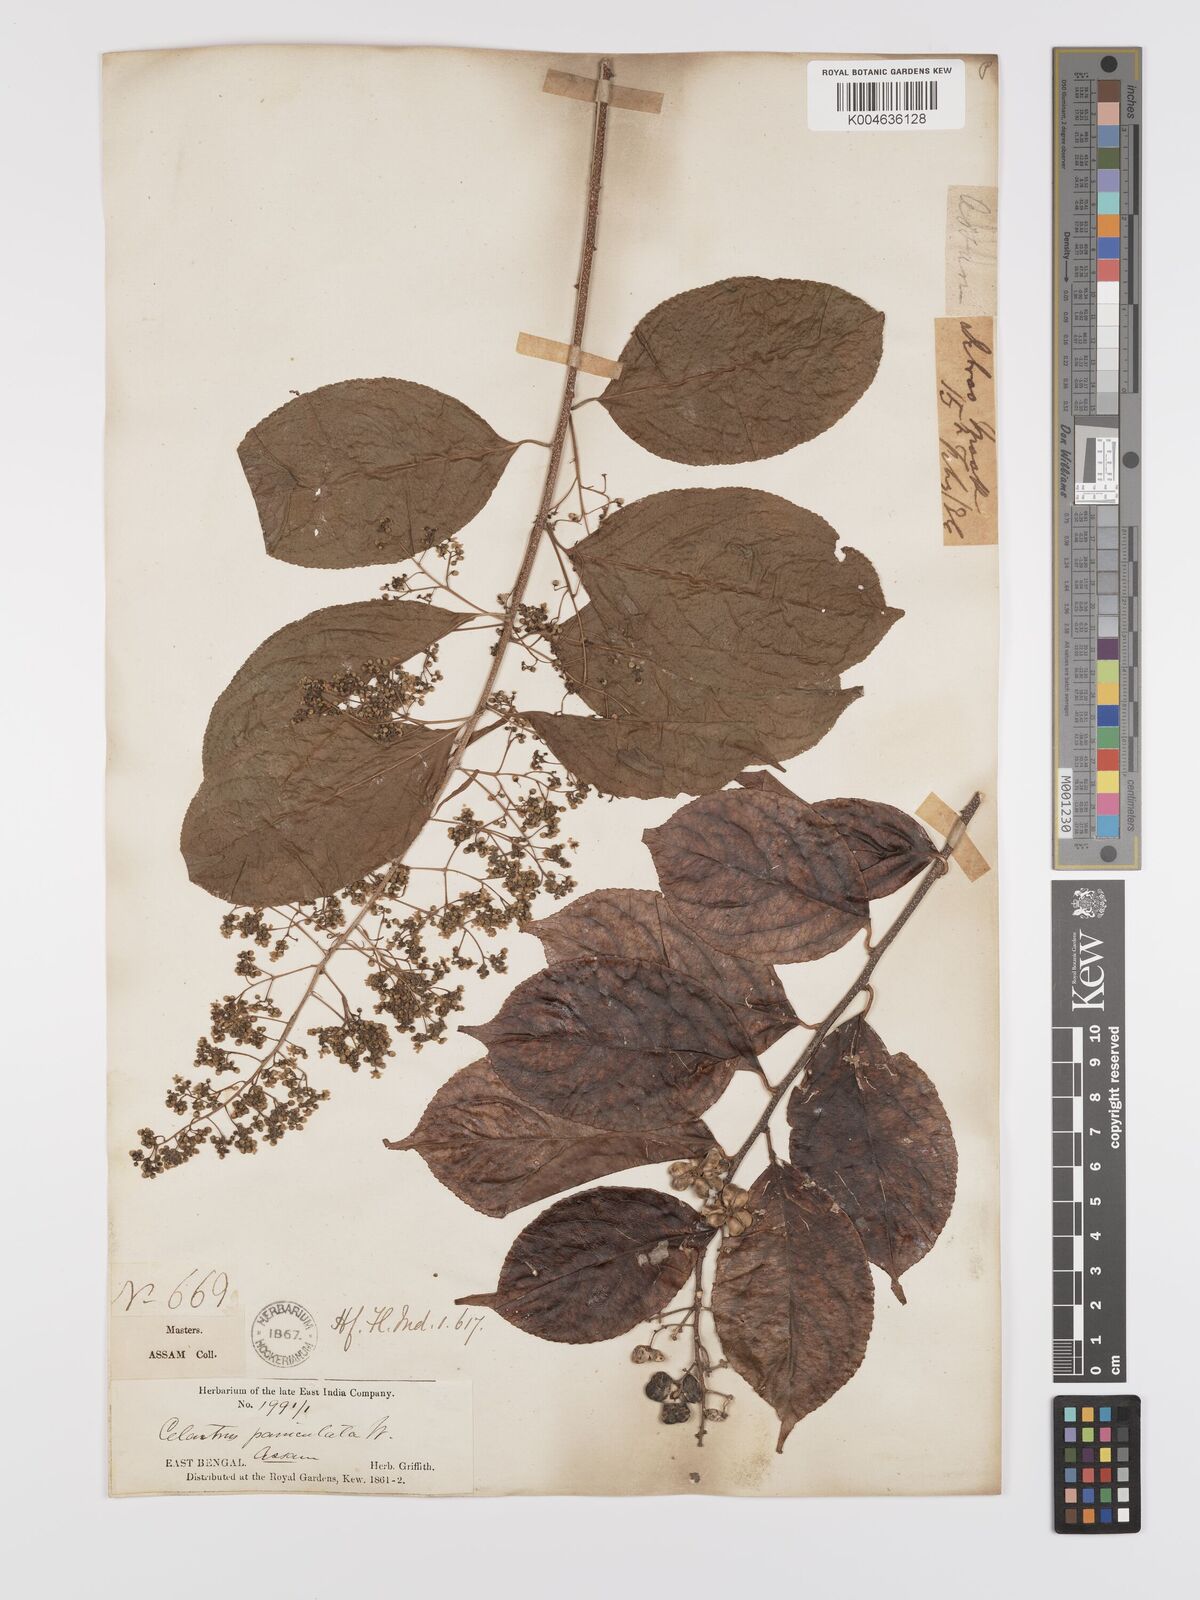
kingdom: Plantae
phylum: Tracheophyta
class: Magnoliopsida
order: Celastrales
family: Celastraceae
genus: Celastrus
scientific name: Celastrus paniculatus
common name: Oriental bittersweet; staff vine
